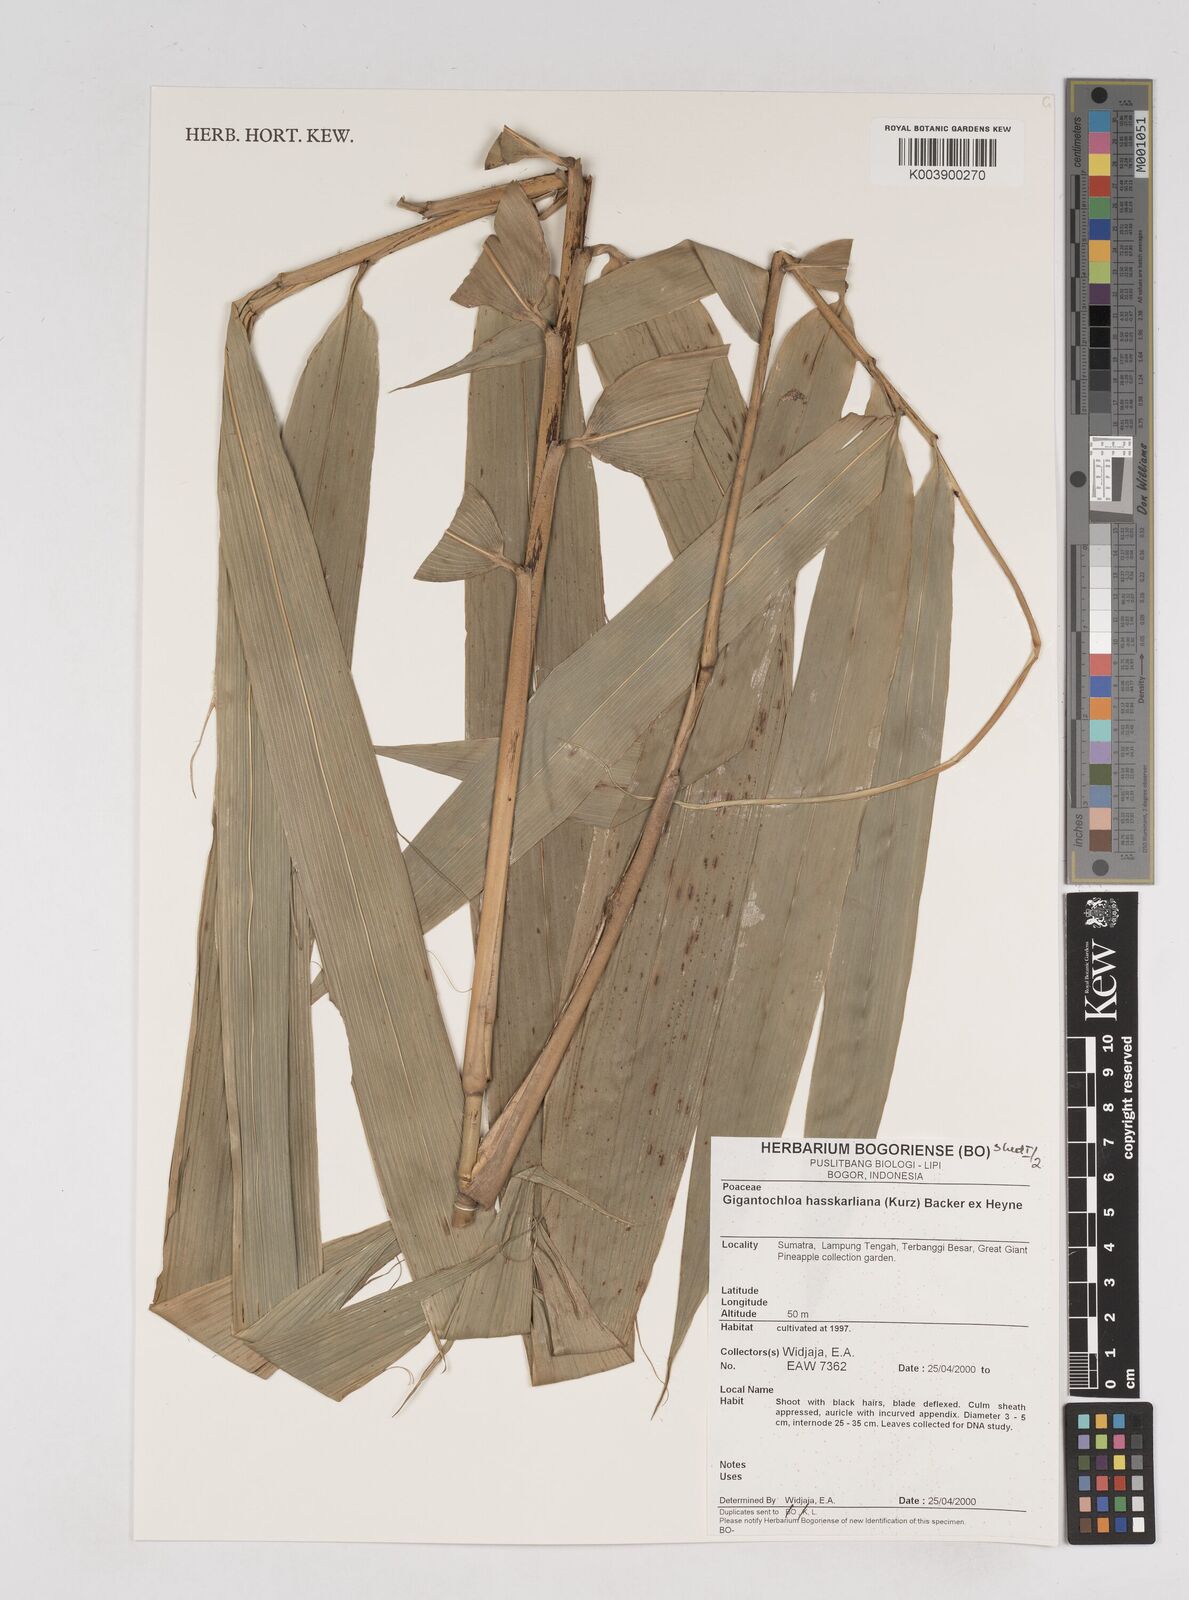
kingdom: Plantae
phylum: Tracheophyta
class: Liliopsida
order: Poales
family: Poaceae
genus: Gigantochloa
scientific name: Gigantochloa hasskarliana
